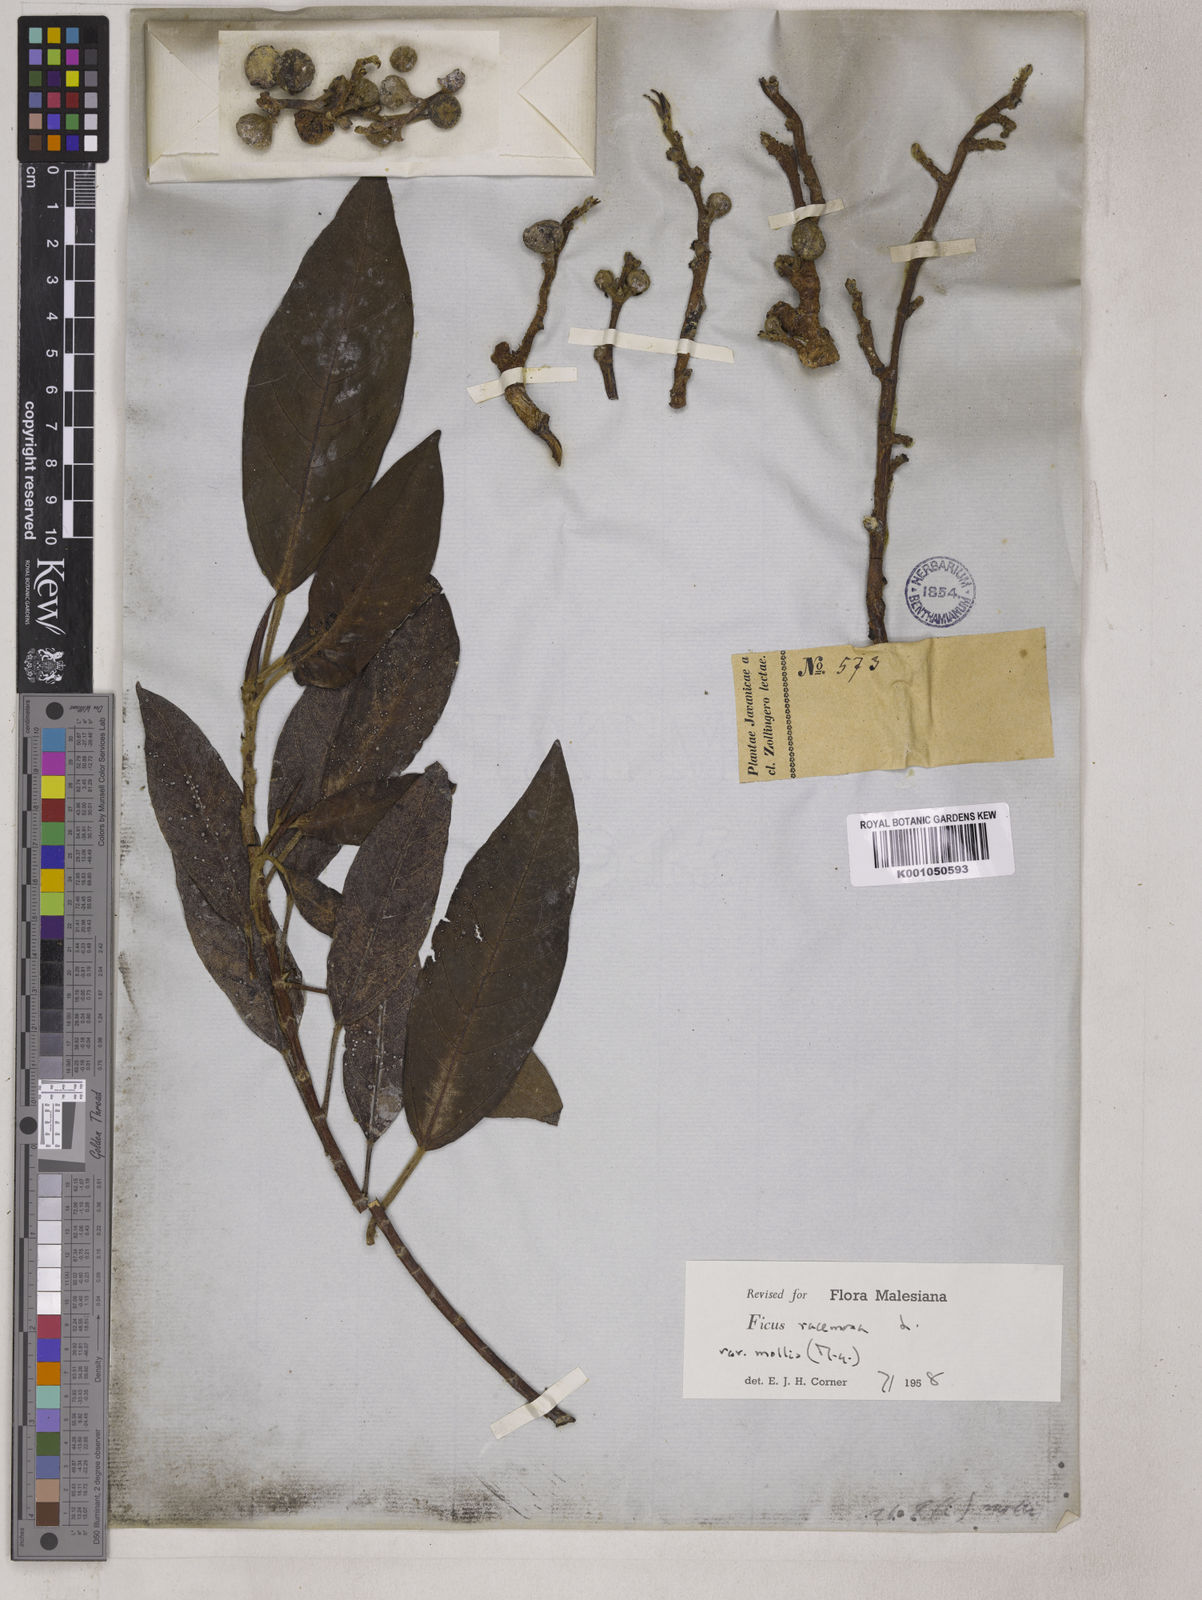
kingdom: Plantae
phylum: Tracheophyta
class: Magnoliopsida
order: Rosales
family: Moraceae
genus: Ficus
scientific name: Ficus racemosa
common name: Cluster fig
